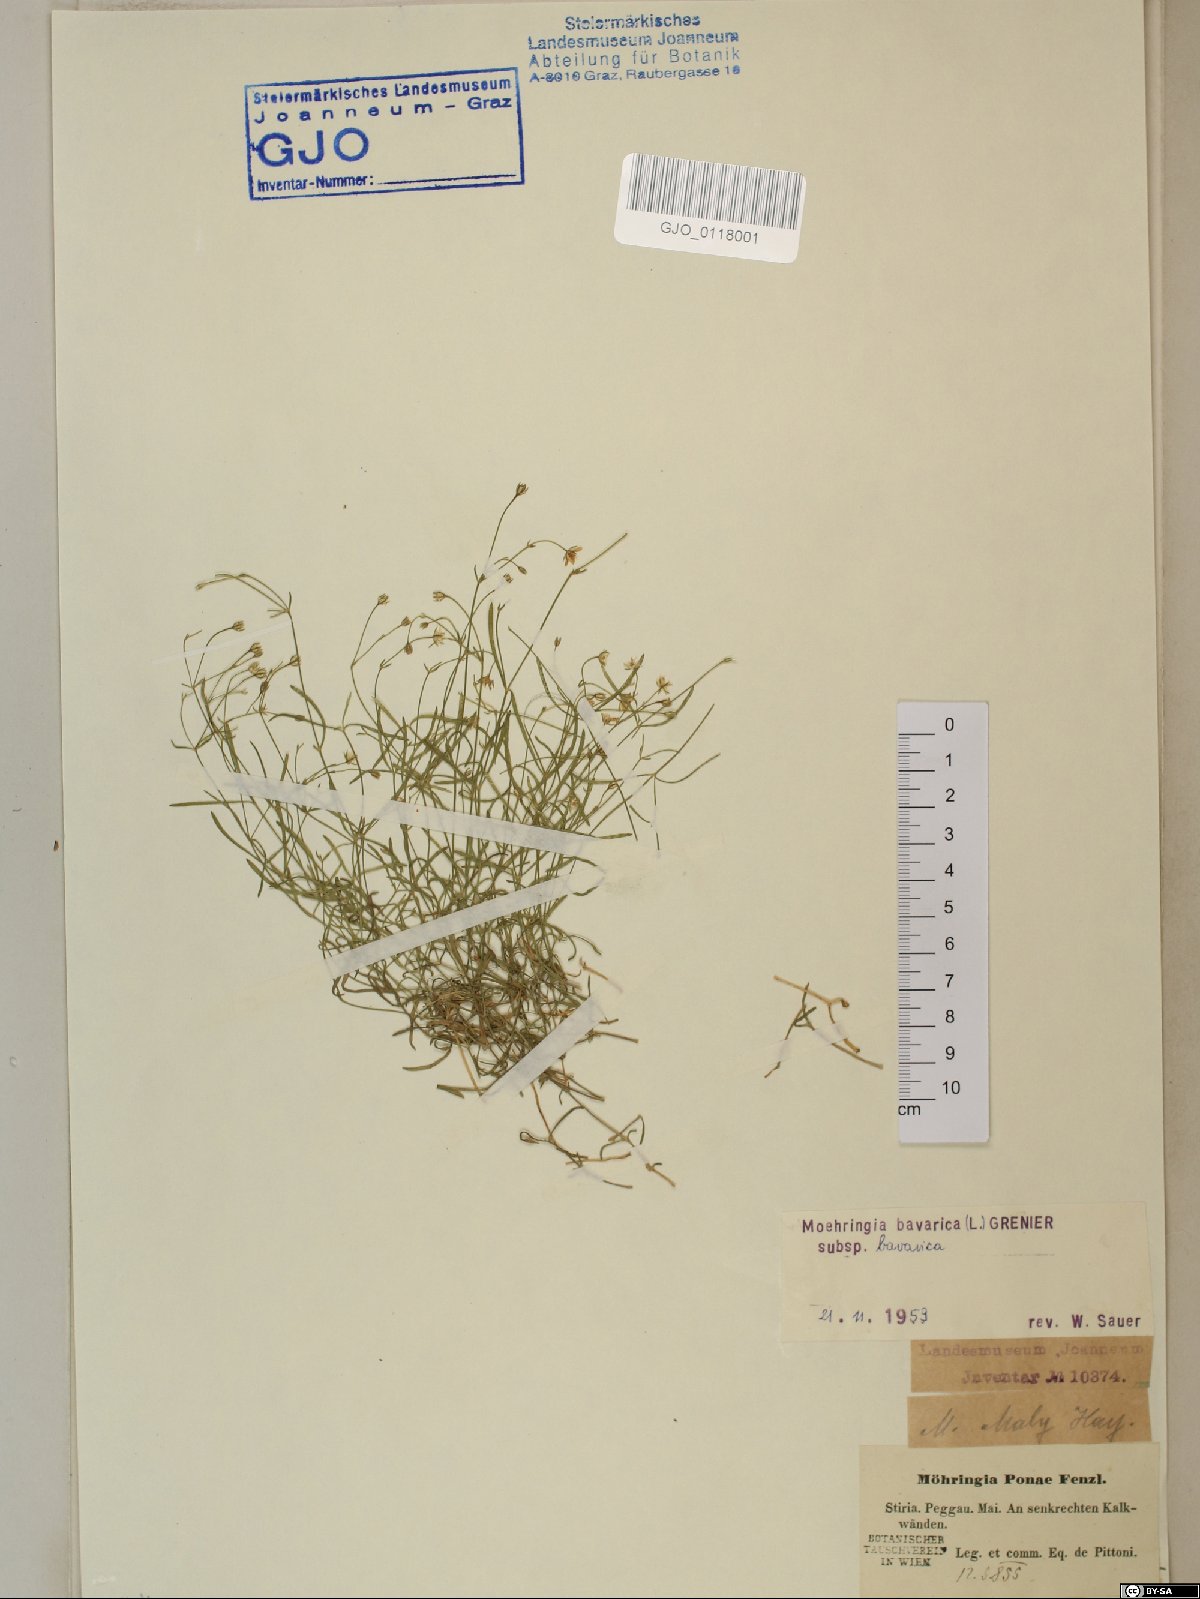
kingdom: Plantae
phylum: Tracheophyta
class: Magnoliopsida
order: Caryophyllales
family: Caryophyllaceae
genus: Moehringia
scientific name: Moehringia bavarica
